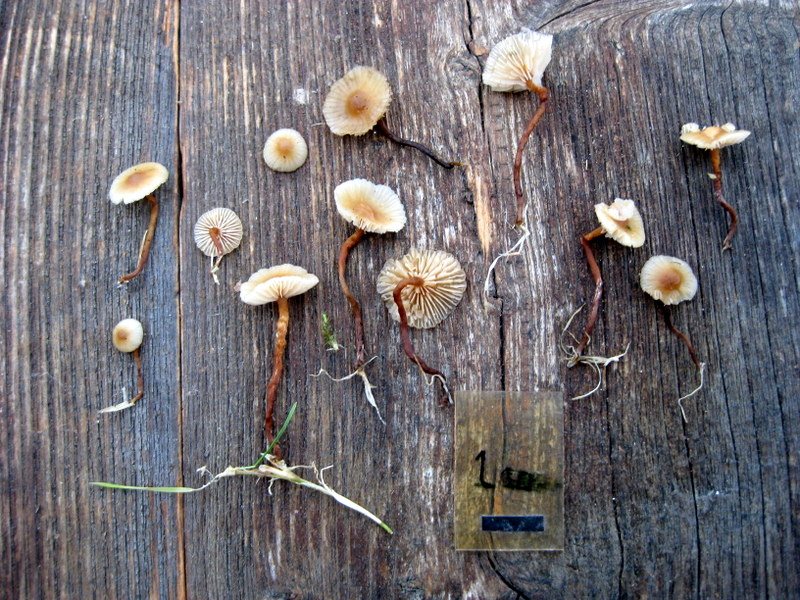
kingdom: Fungi
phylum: Basidiomycota
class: Agaricomycetes
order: Agaricales
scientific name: Agaricales
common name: champignonordenen
